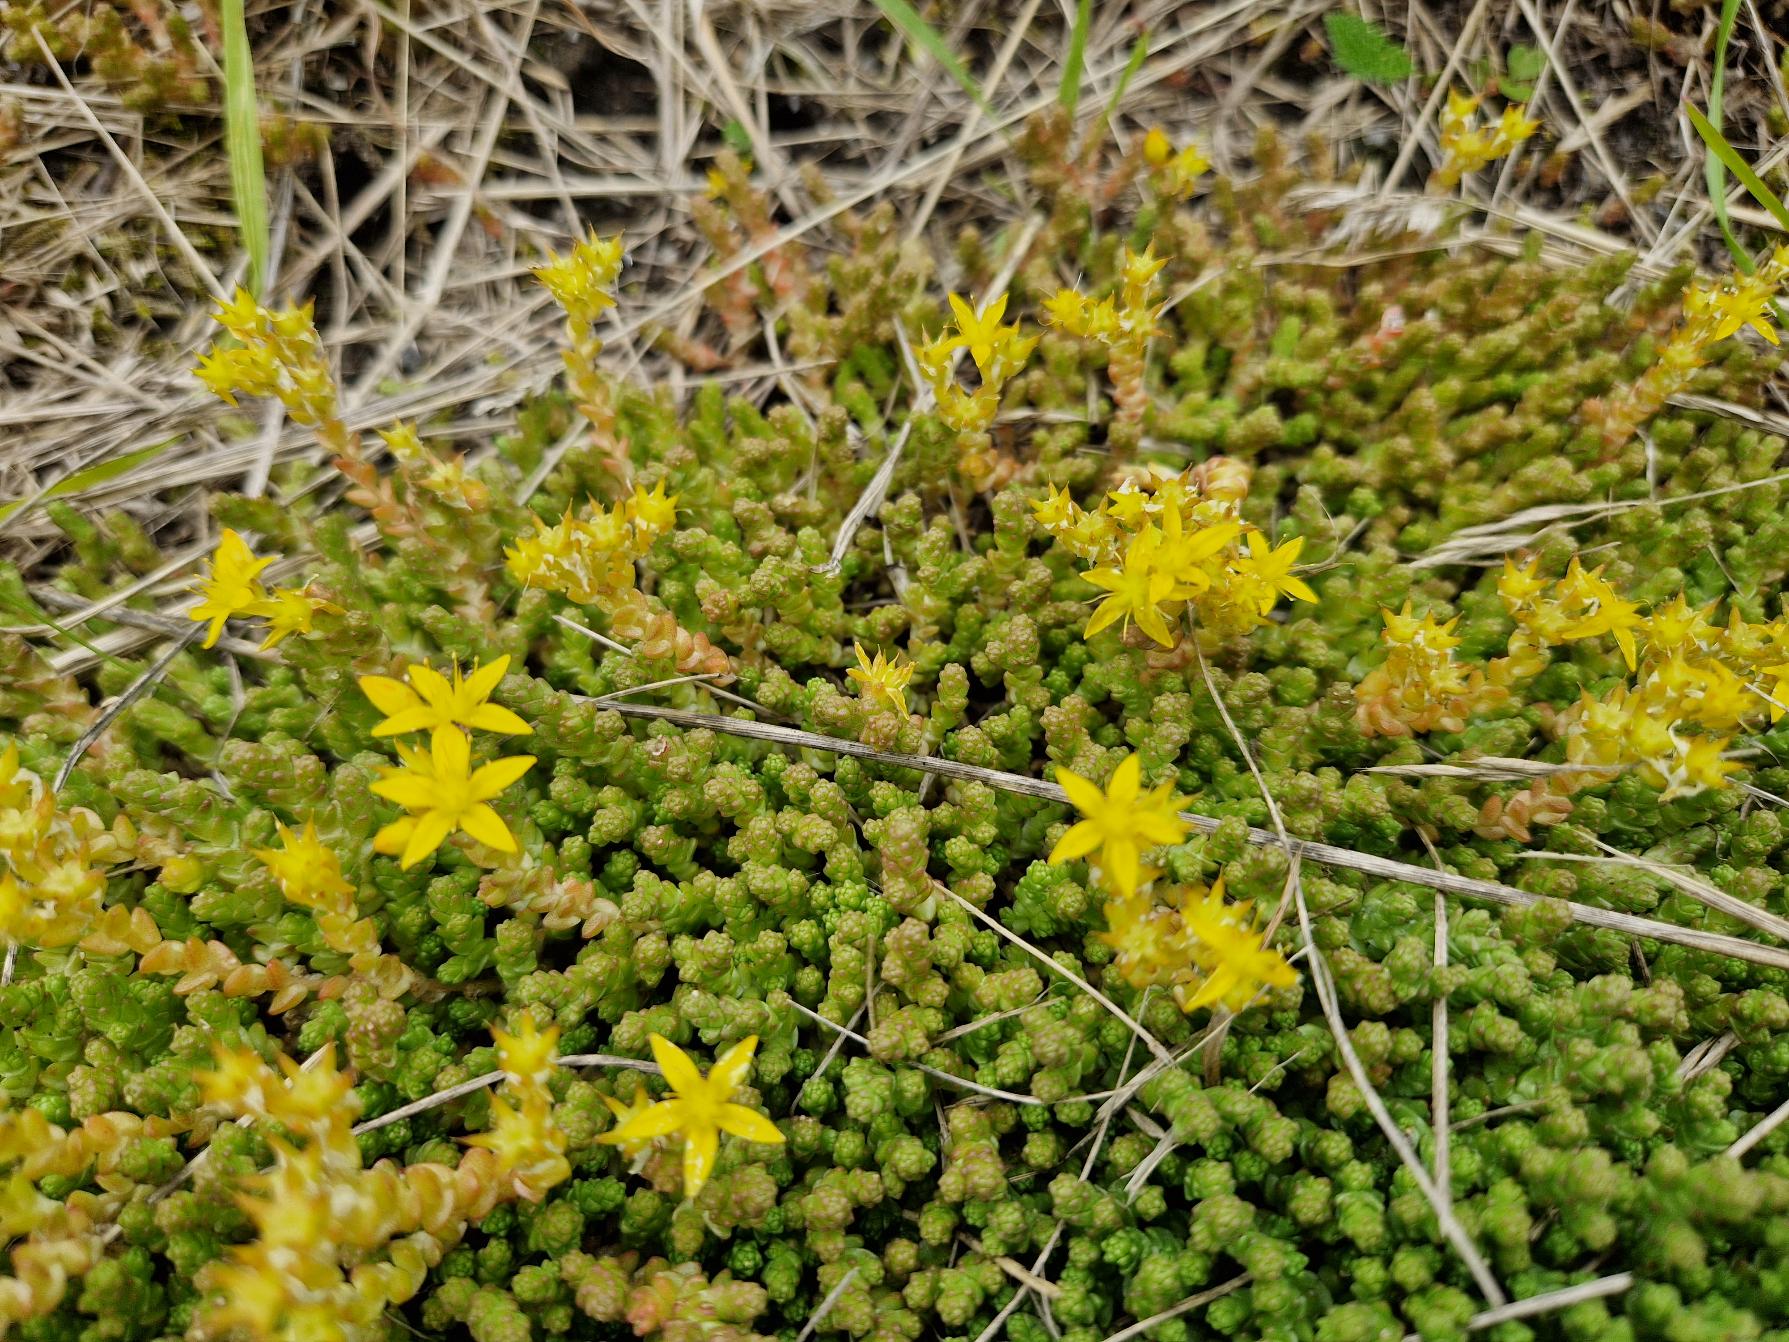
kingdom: Plantae
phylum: Tracheophyta
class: Magnoliopsida
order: Saxifragales
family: Crassulaceae
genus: Sedum
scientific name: Sedum acre
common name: Bidende stenurt
